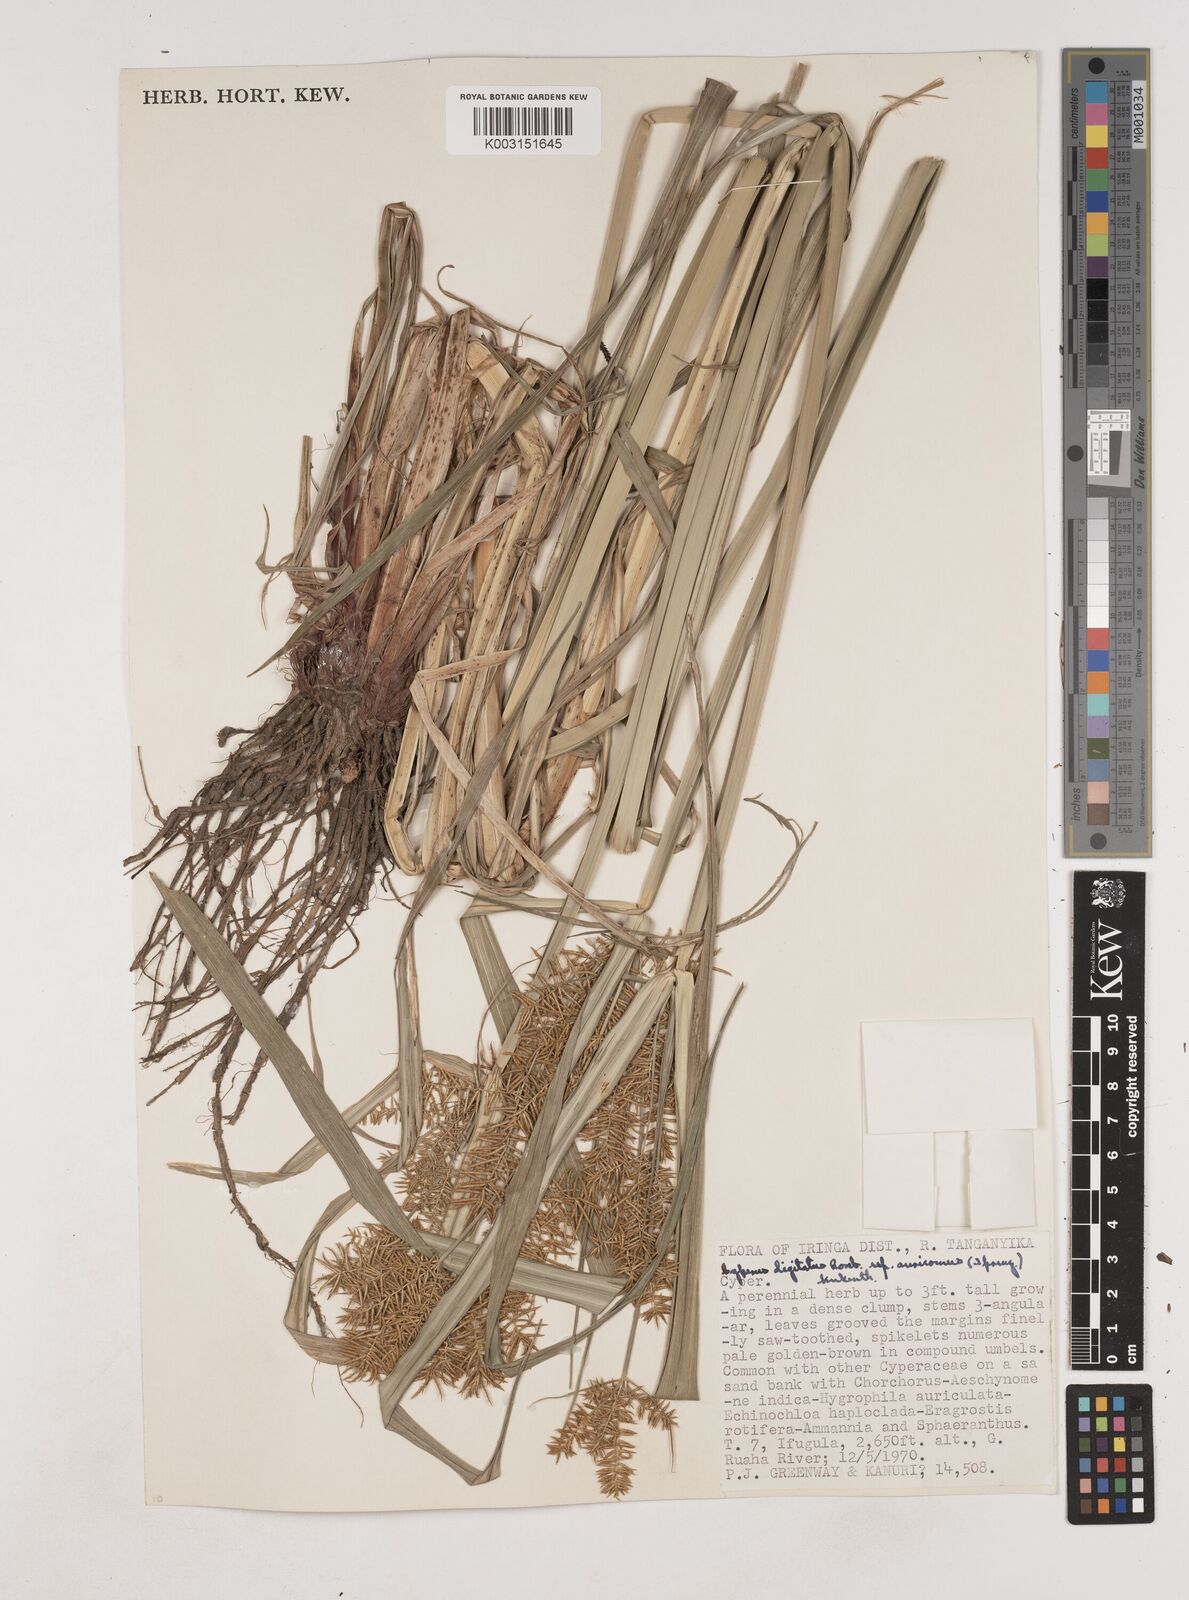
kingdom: Plantae
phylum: Tracheophyta
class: Liliopsida
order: Poales
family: Cyperaceae
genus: Cyperus
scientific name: Cyperus digitatus
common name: Finger flatsedge
